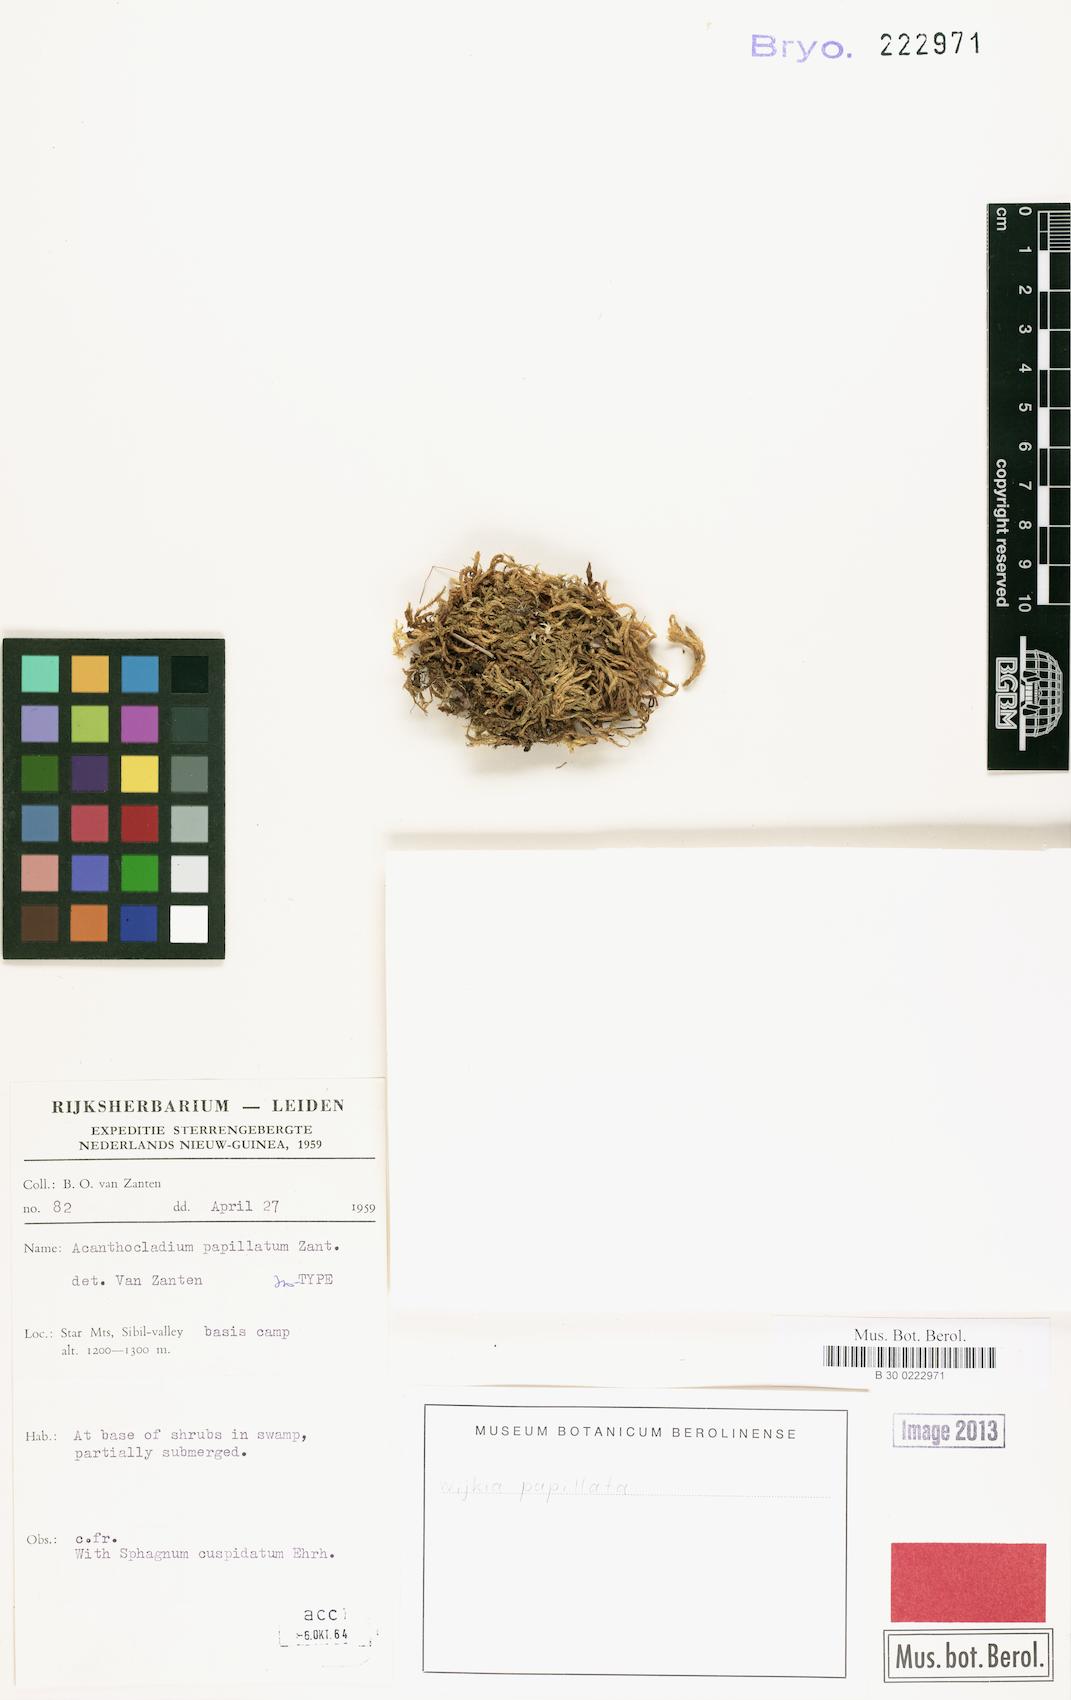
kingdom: Plantae
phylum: Bryophyta
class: Bryopsida
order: Hypnales
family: Sematophyllaceae
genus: Papillidiopsis
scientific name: Papillidiopsis ramulina
